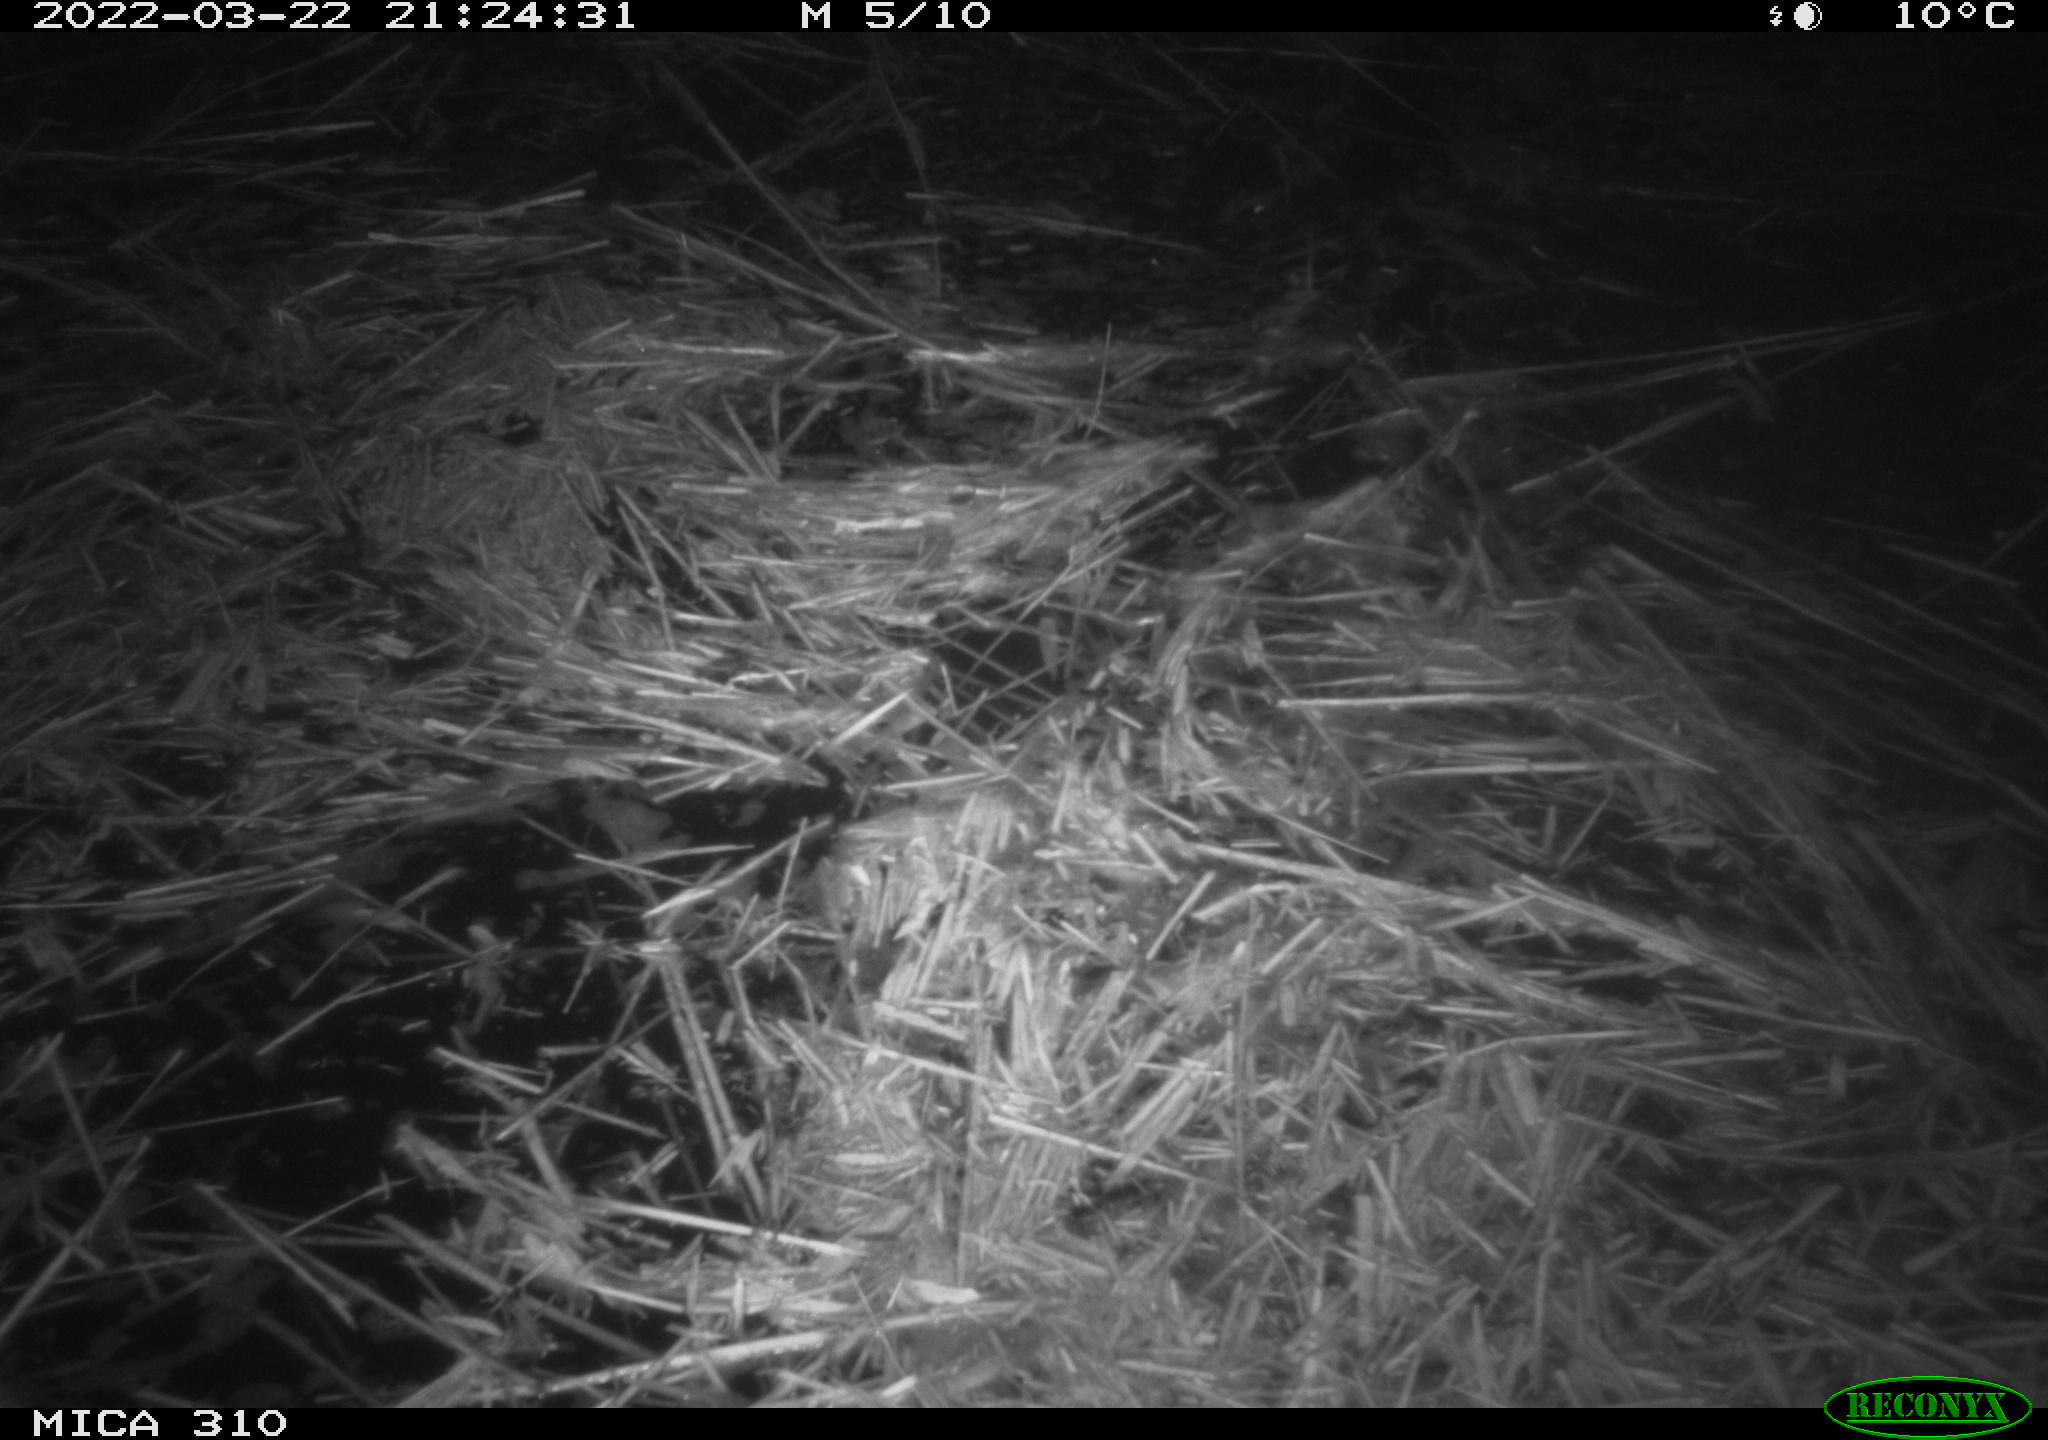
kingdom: Animalia
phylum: Chordata
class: Aves
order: Anseriformes
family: Anatidae
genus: Anas
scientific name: Anas platyrhynchos
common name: Mallard
